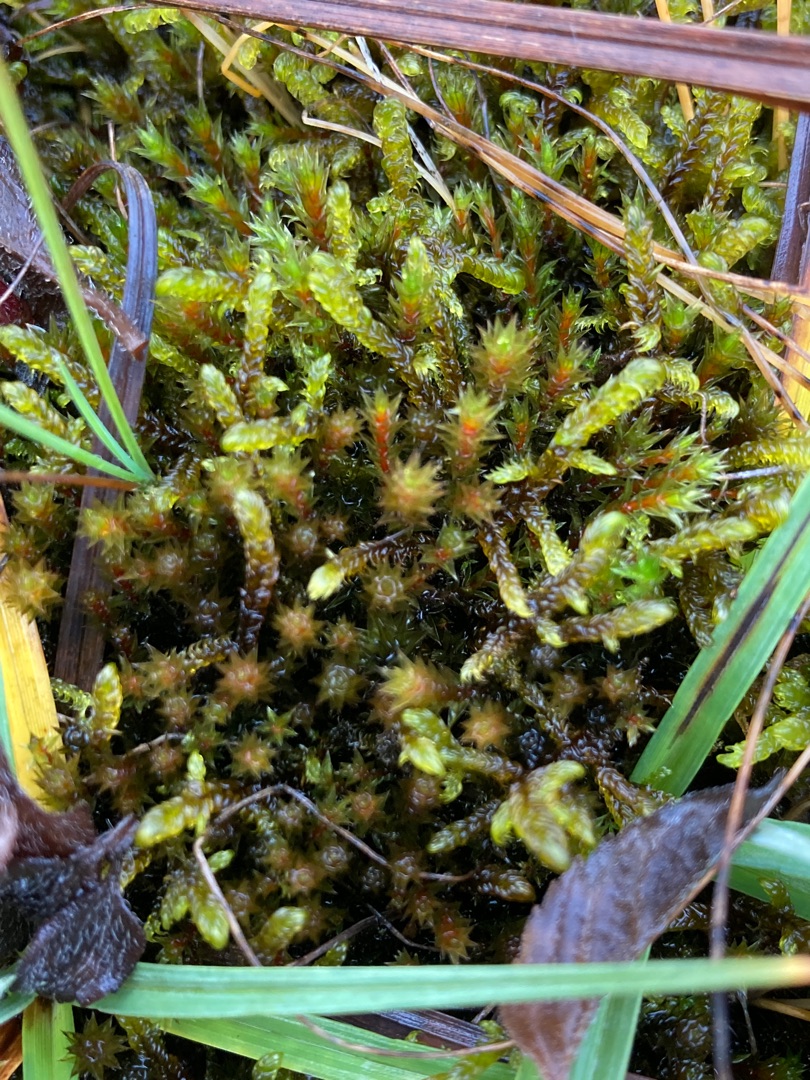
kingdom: Plantae
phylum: Bryophyta
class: Bryopsida
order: Bryales
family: Bryaceae
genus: Ptychostomum
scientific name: Ptychostomum pseudotriquetrum
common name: Nedløbende bryum
